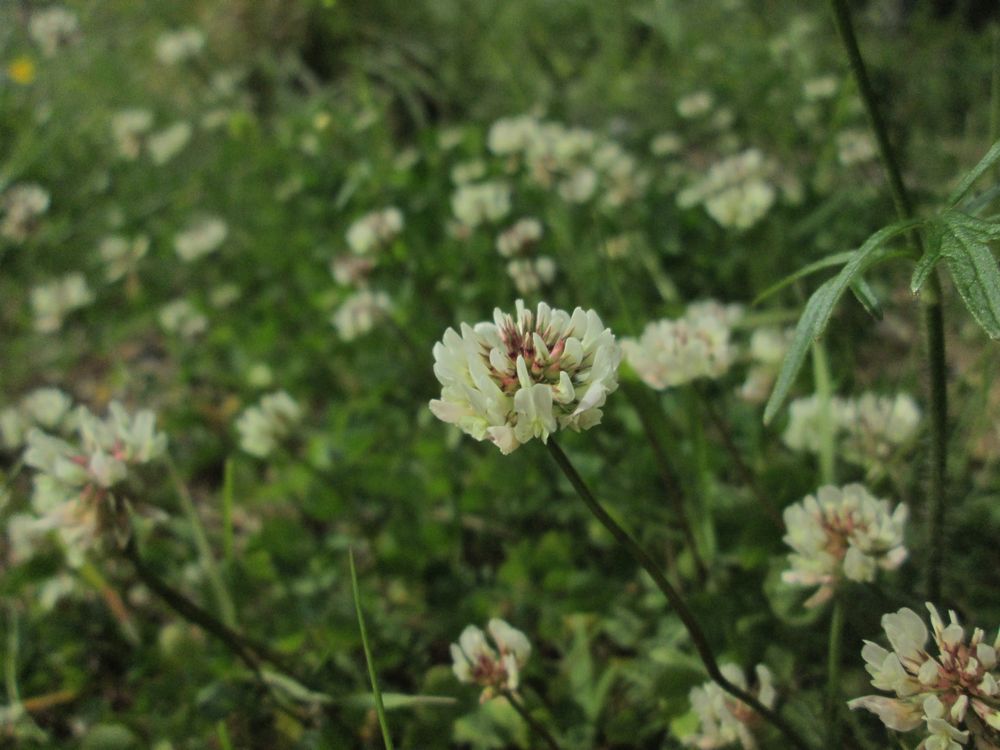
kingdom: Plantae
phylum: Tracheophyta
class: Magnoliopsida
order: Fabales
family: Fabaceae
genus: Trifolium
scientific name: Trifolium repens
